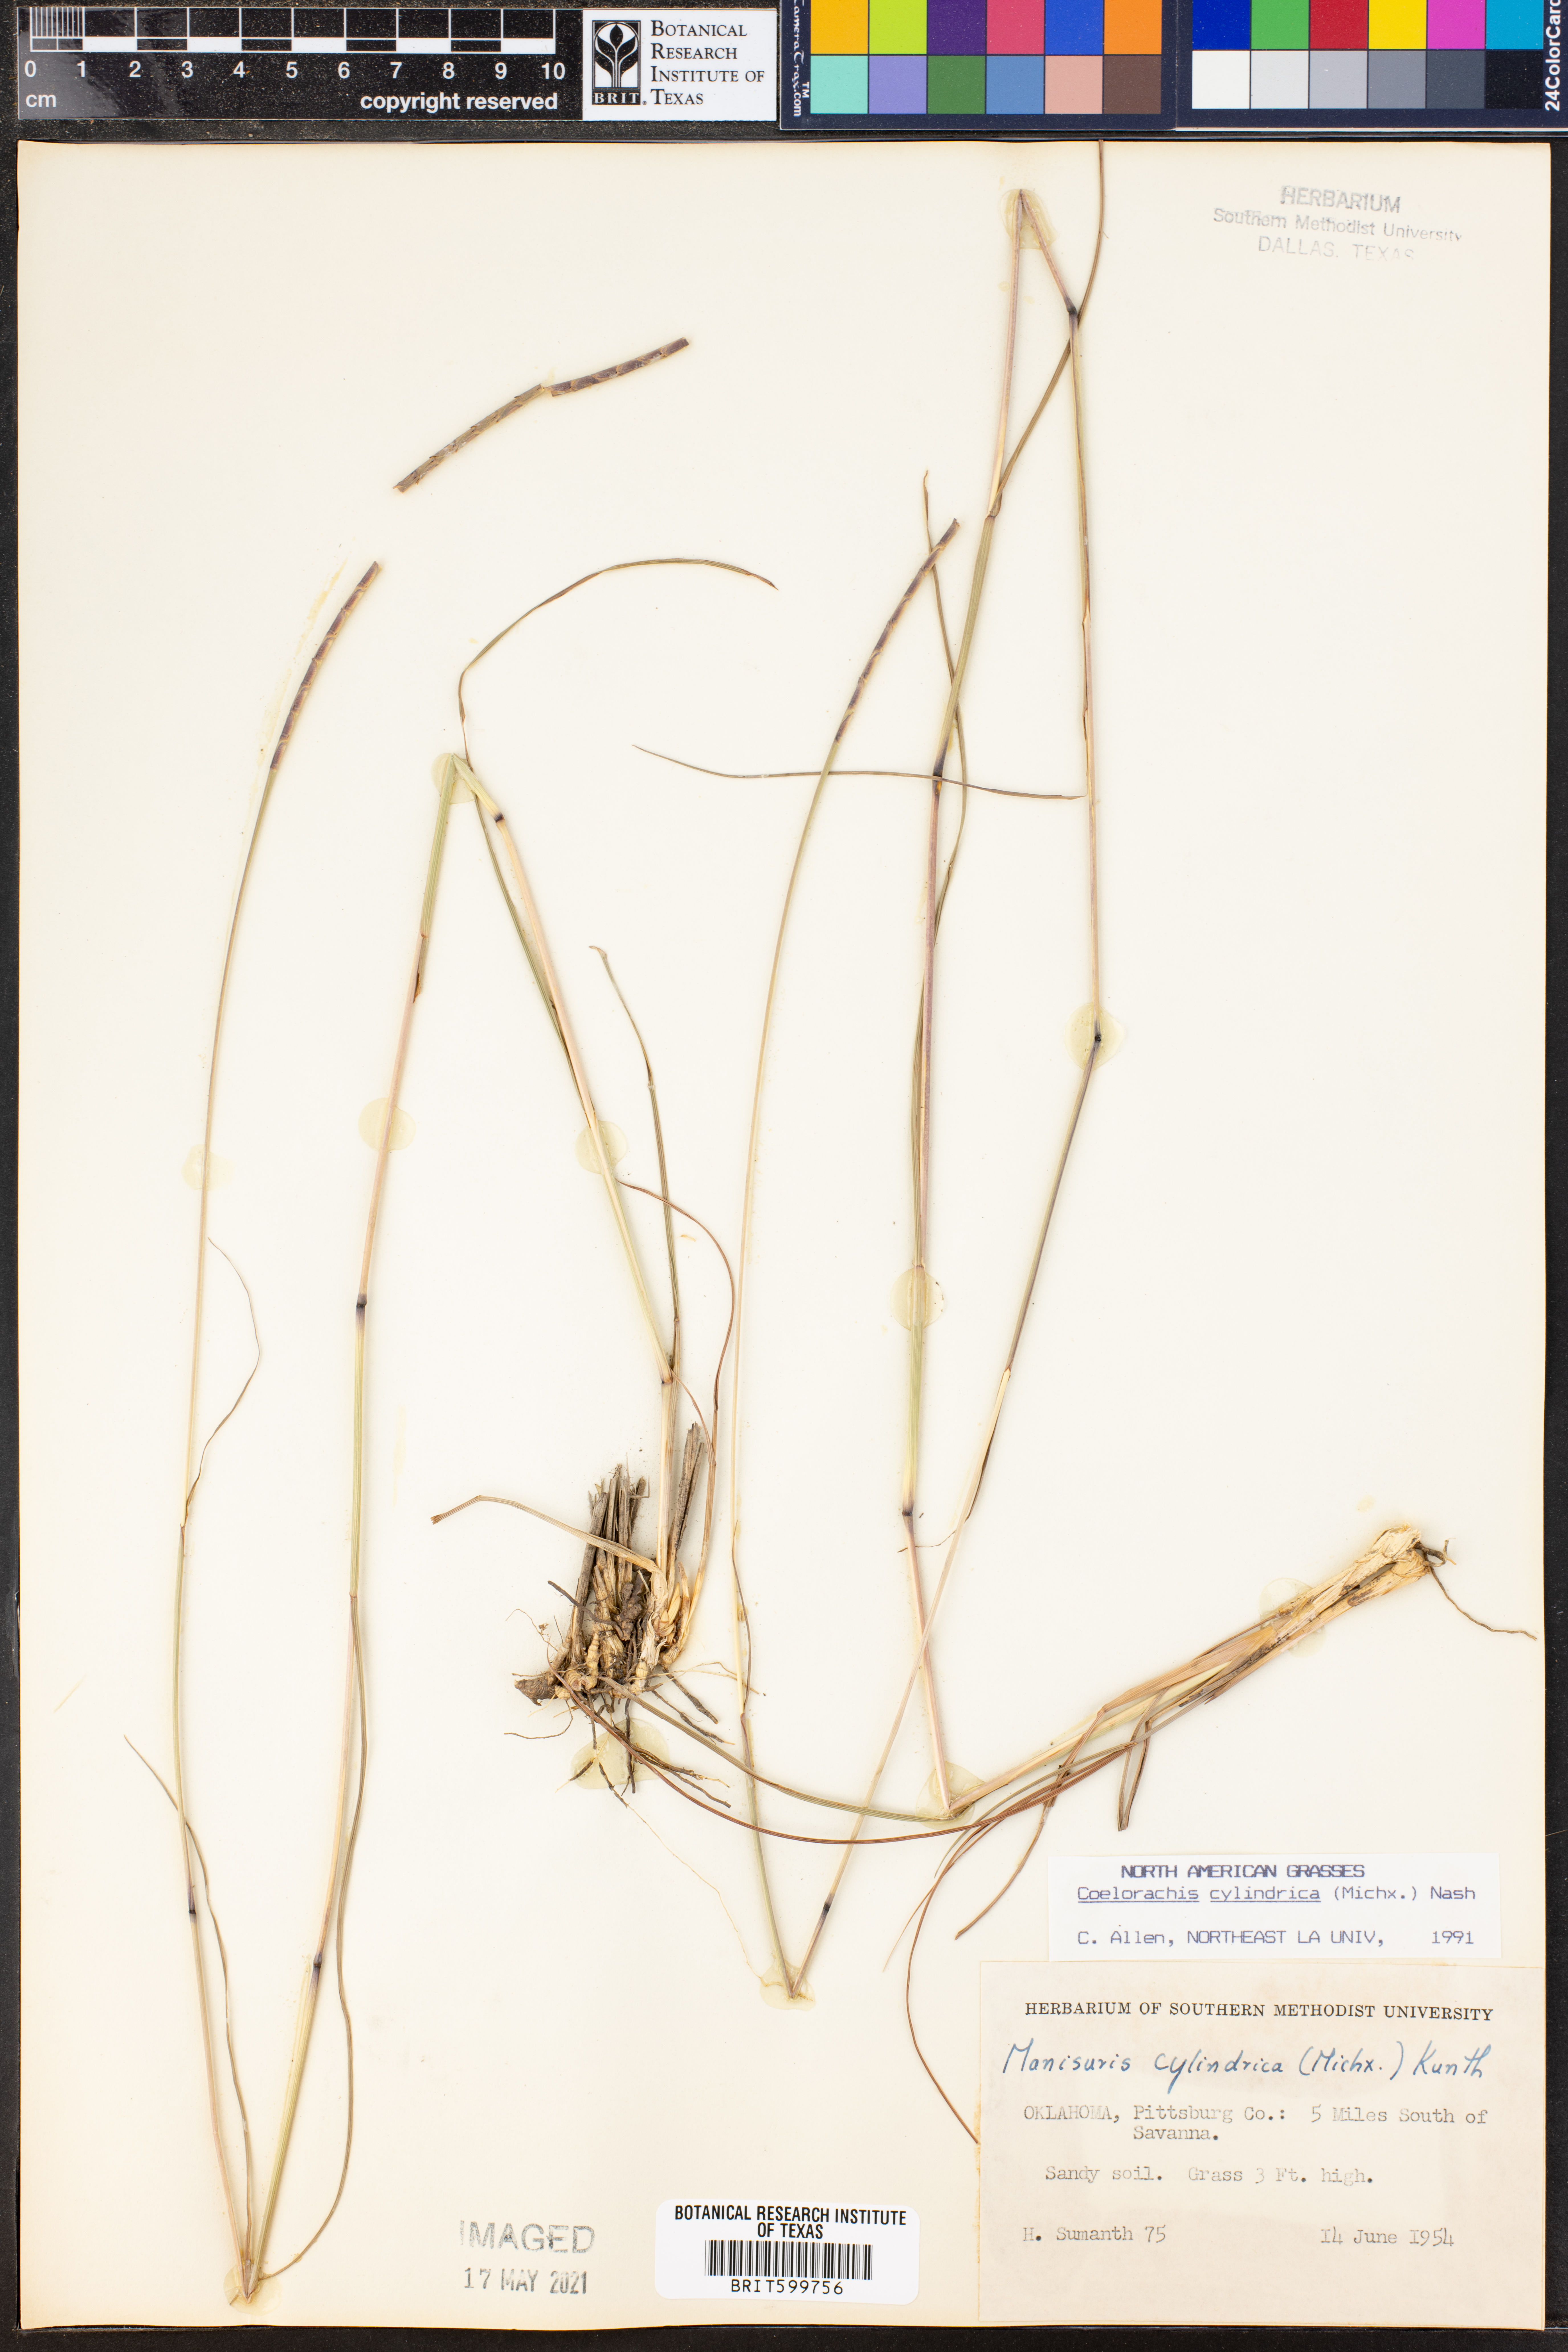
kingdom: Plantae
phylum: Tracheophyta
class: Liliopsida
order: Poales
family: Poaceae
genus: Rottboellia
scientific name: Rottboellia campestris
